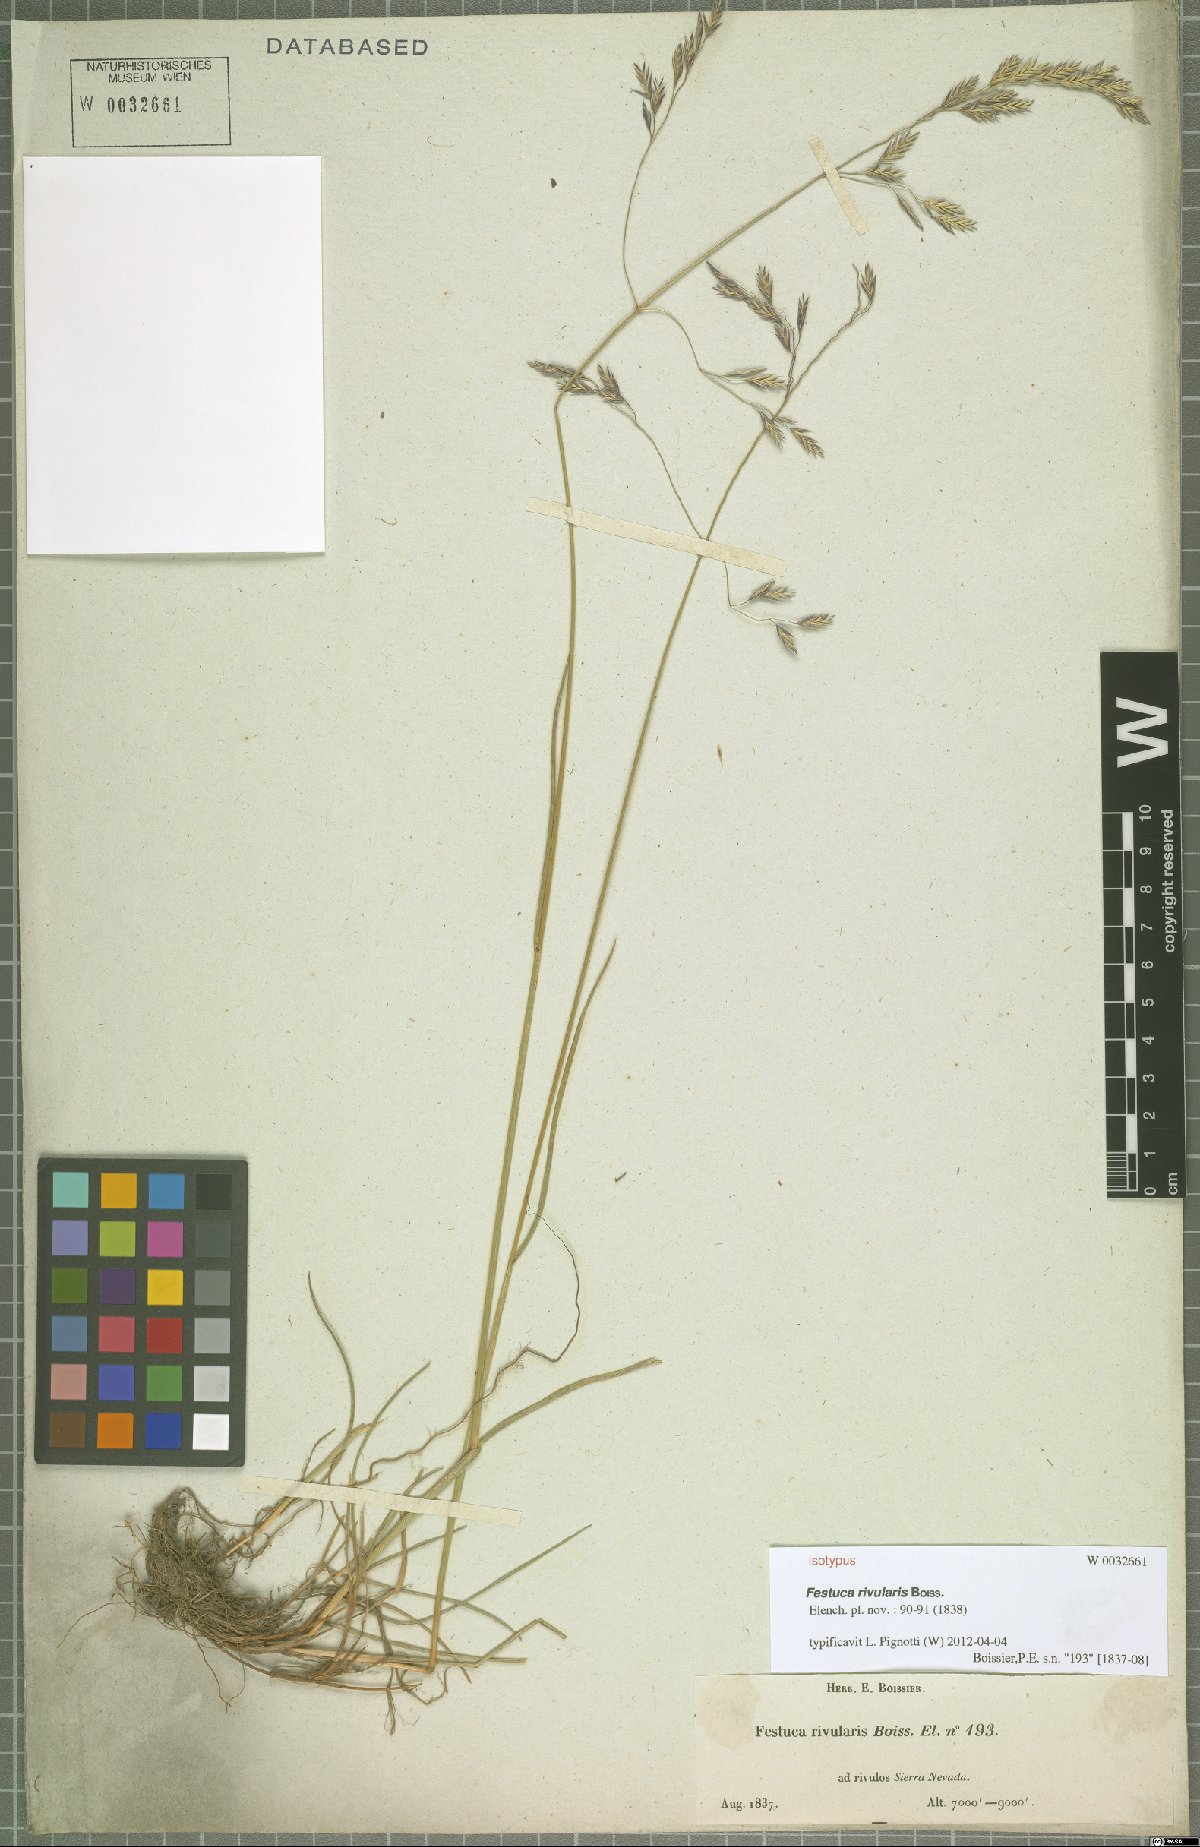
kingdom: Plantae
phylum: Tracheophyta
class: Liliopsida
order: Poales
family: Poaceae
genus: Festuca
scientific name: Festuca rivularis
